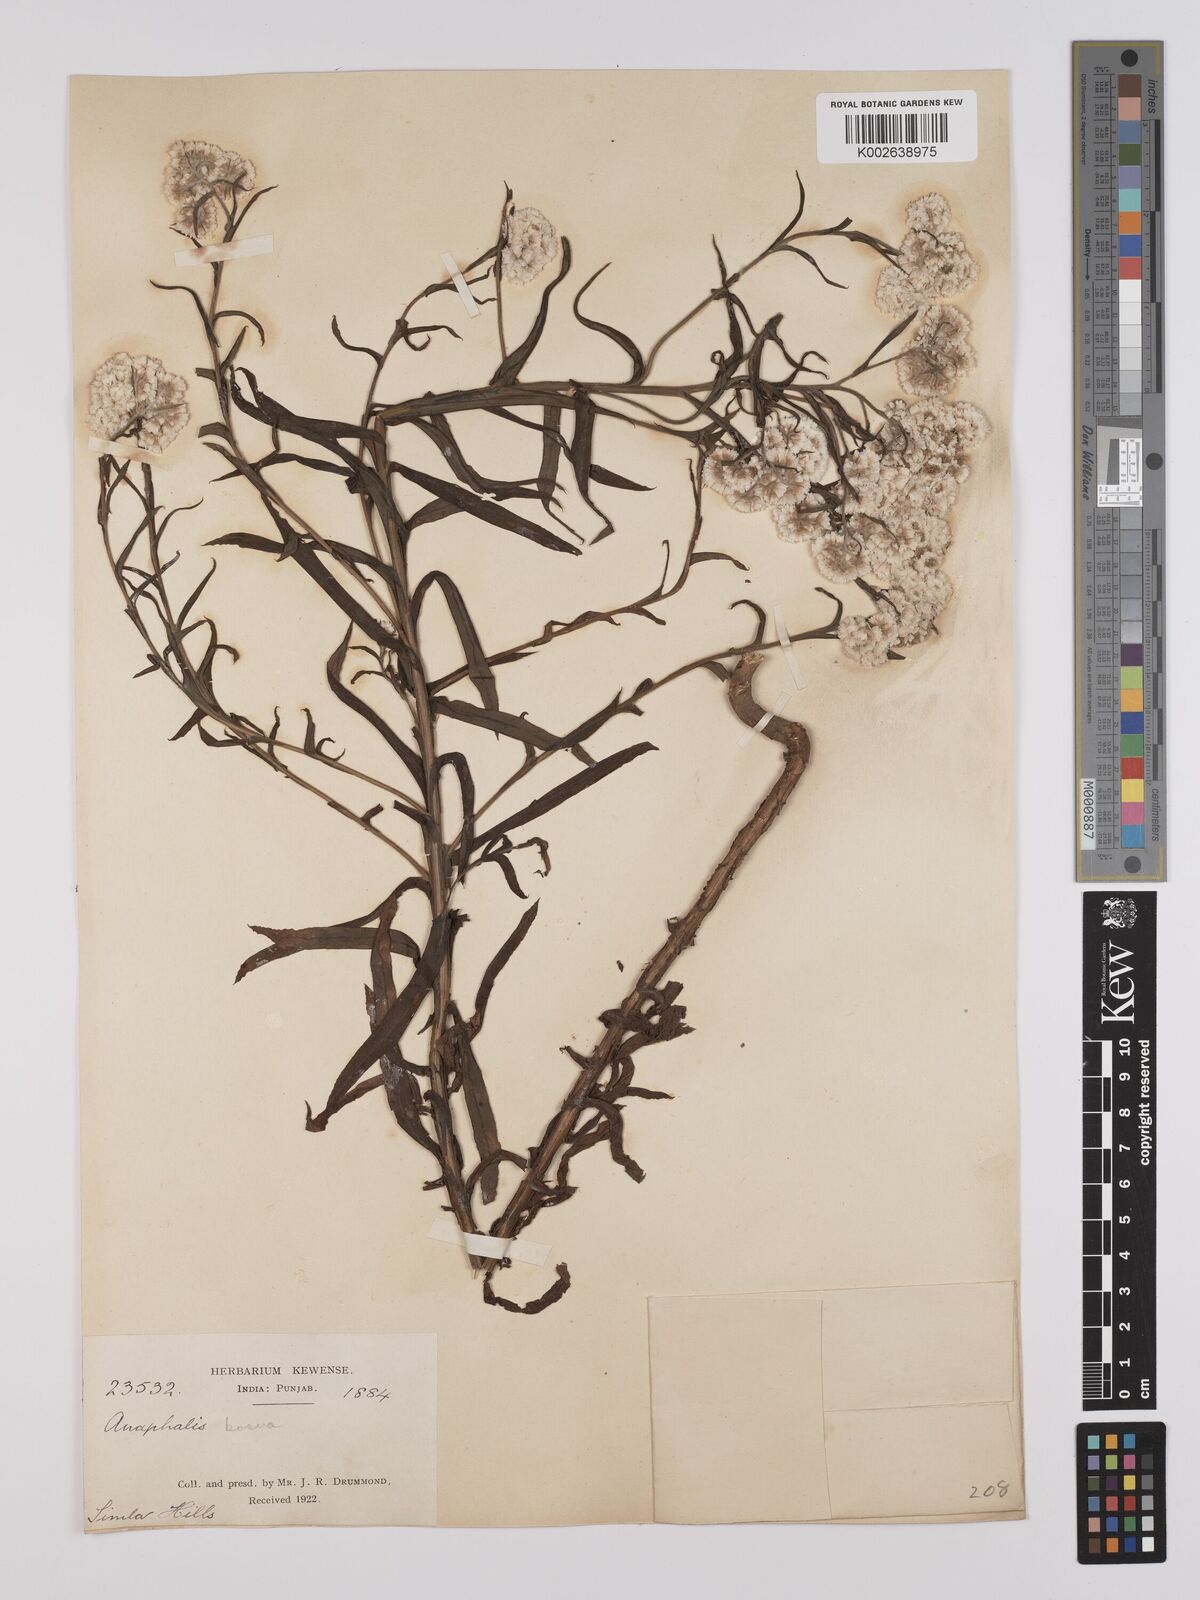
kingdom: Plantae
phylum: Tracheophyta
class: Magnoliopsida
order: Asterales
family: Asteraceae
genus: Anaphalis
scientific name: Anaphalis busua
